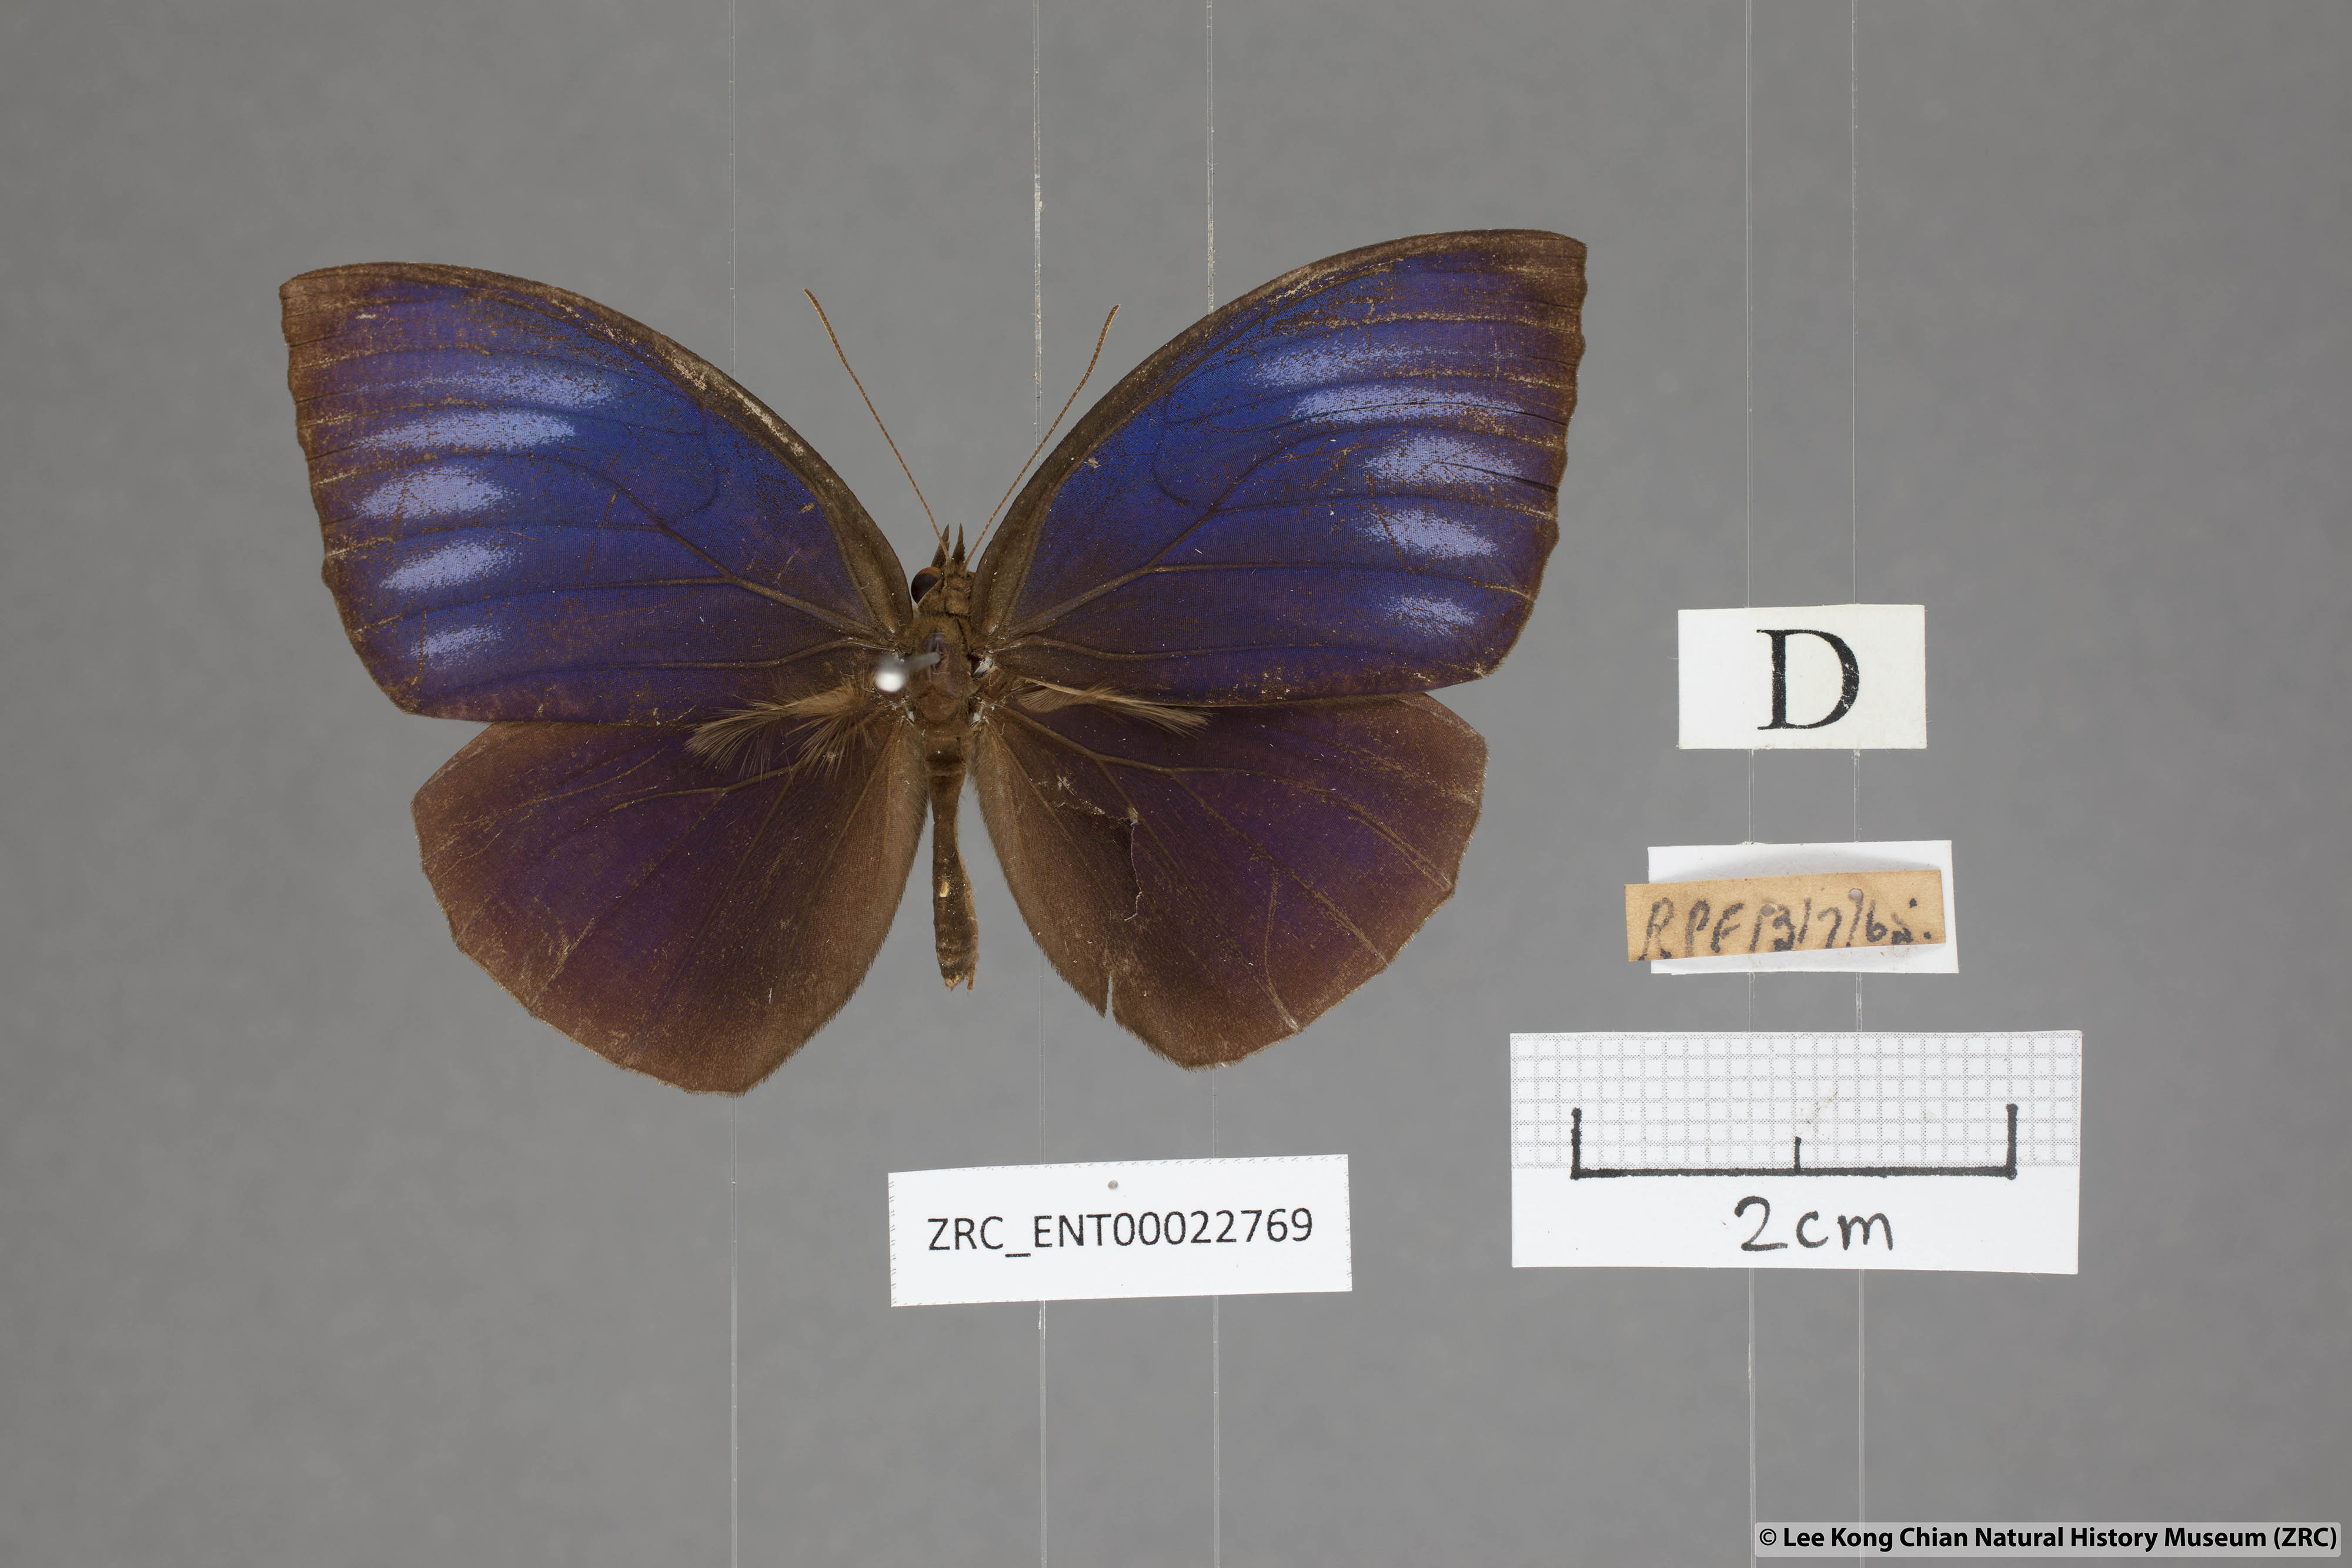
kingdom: Animalia
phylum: Arthropoda
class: Insecta
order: Lepidoptera
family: Nymphalidae
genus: Elymnias
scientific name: Elymnias penanga
